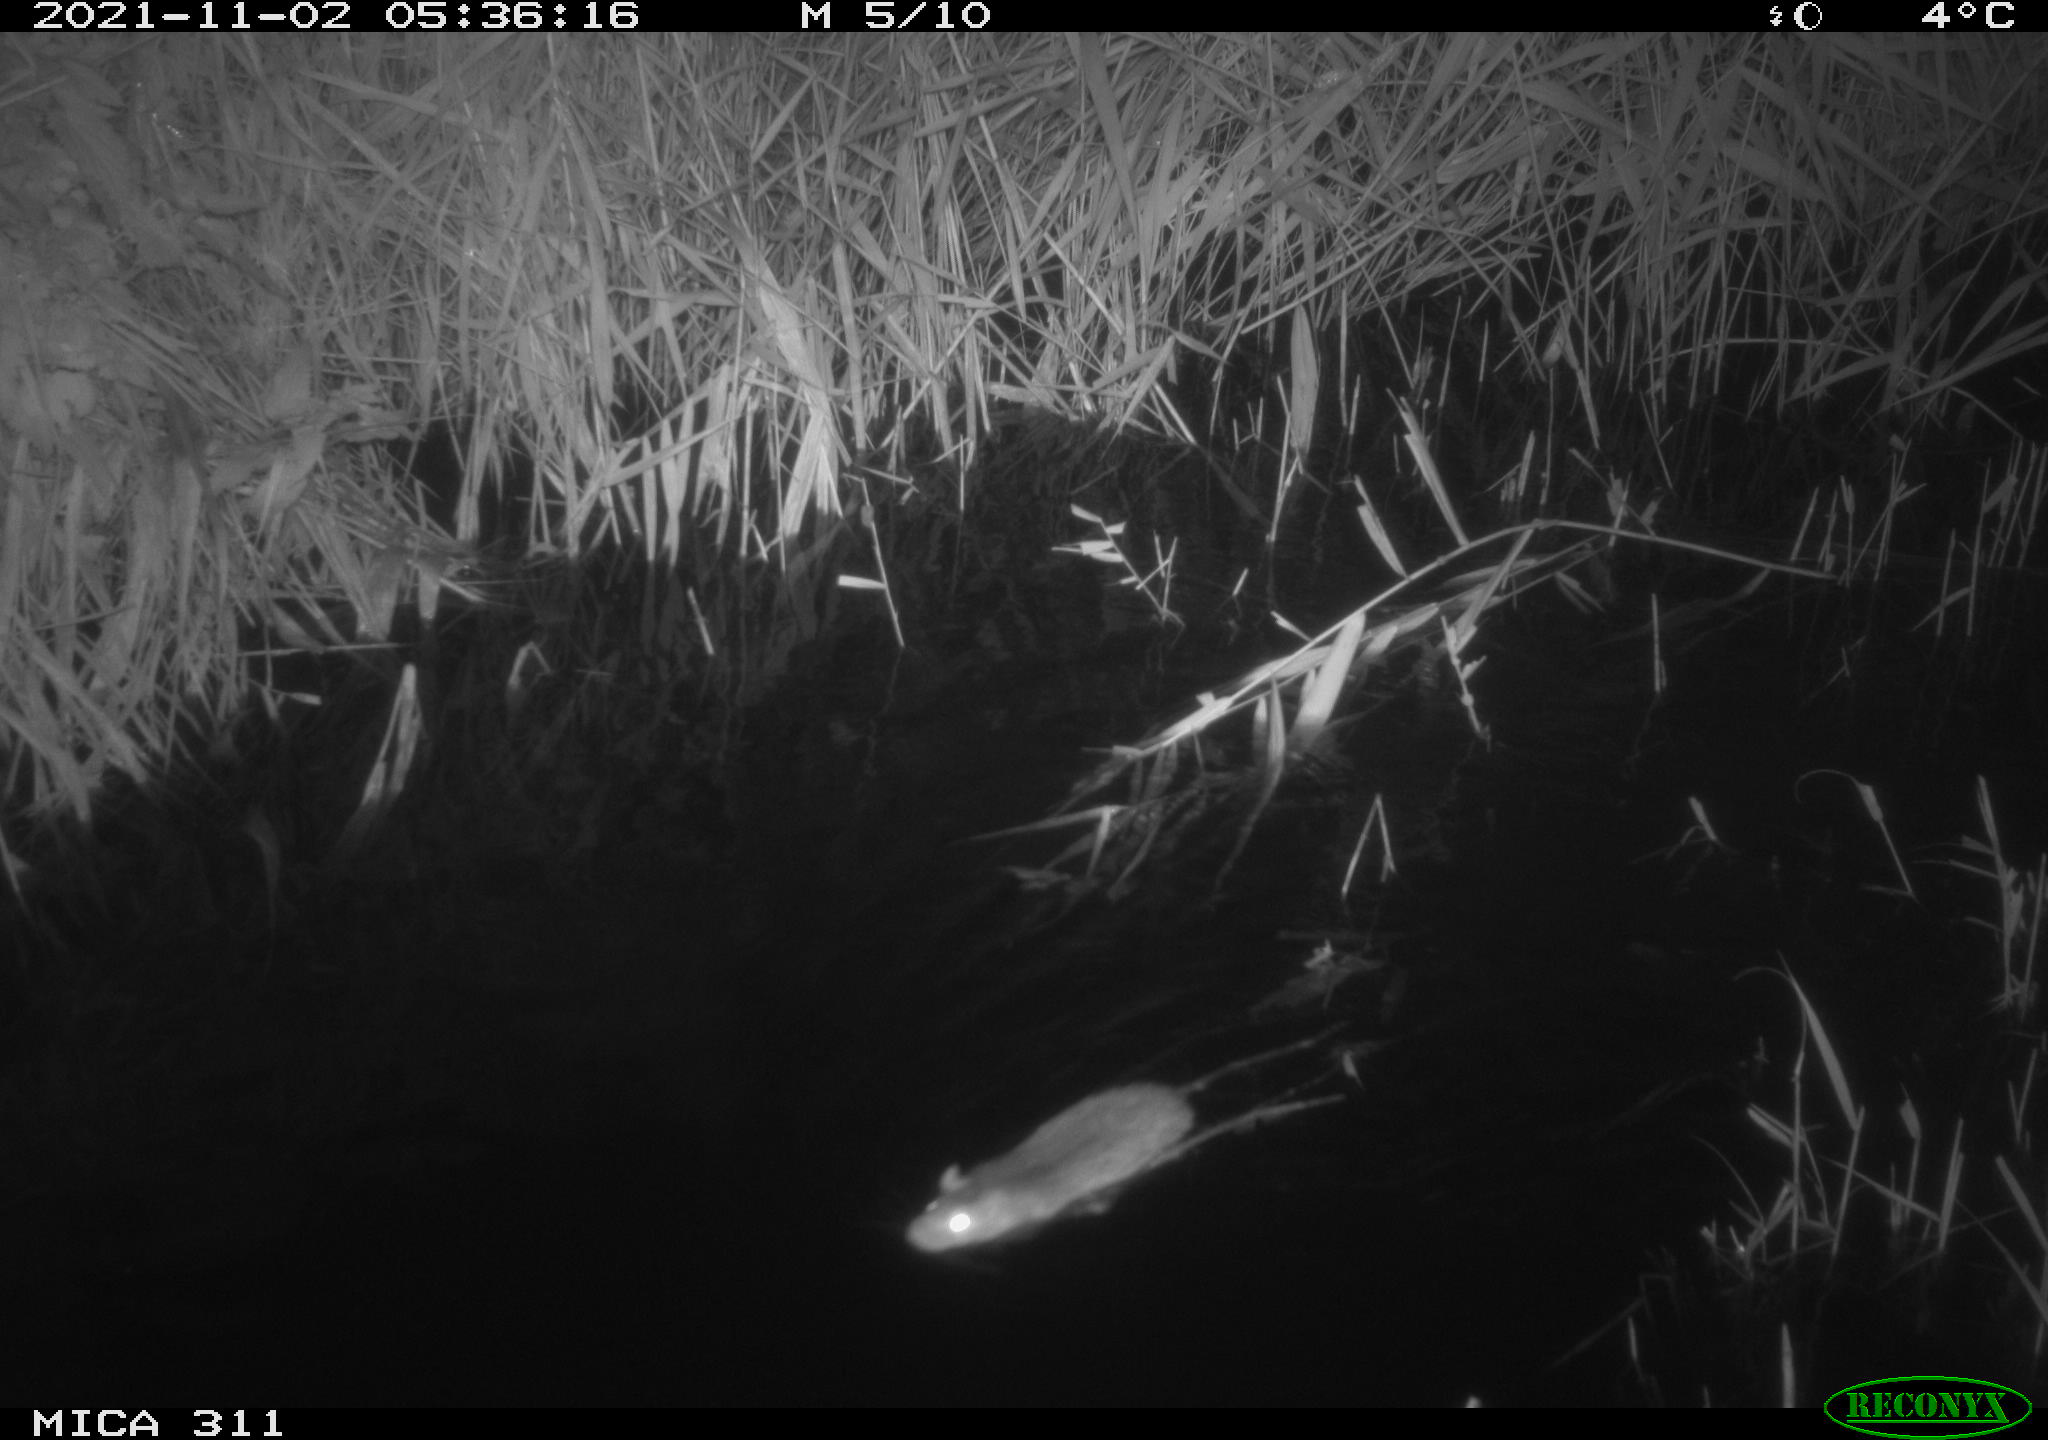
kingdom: Animalia
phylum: Chordata
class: Mammalia
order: Rodentia
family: Muridae
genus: Rattus
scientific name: Rattus norvegicus
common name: Brown rat
